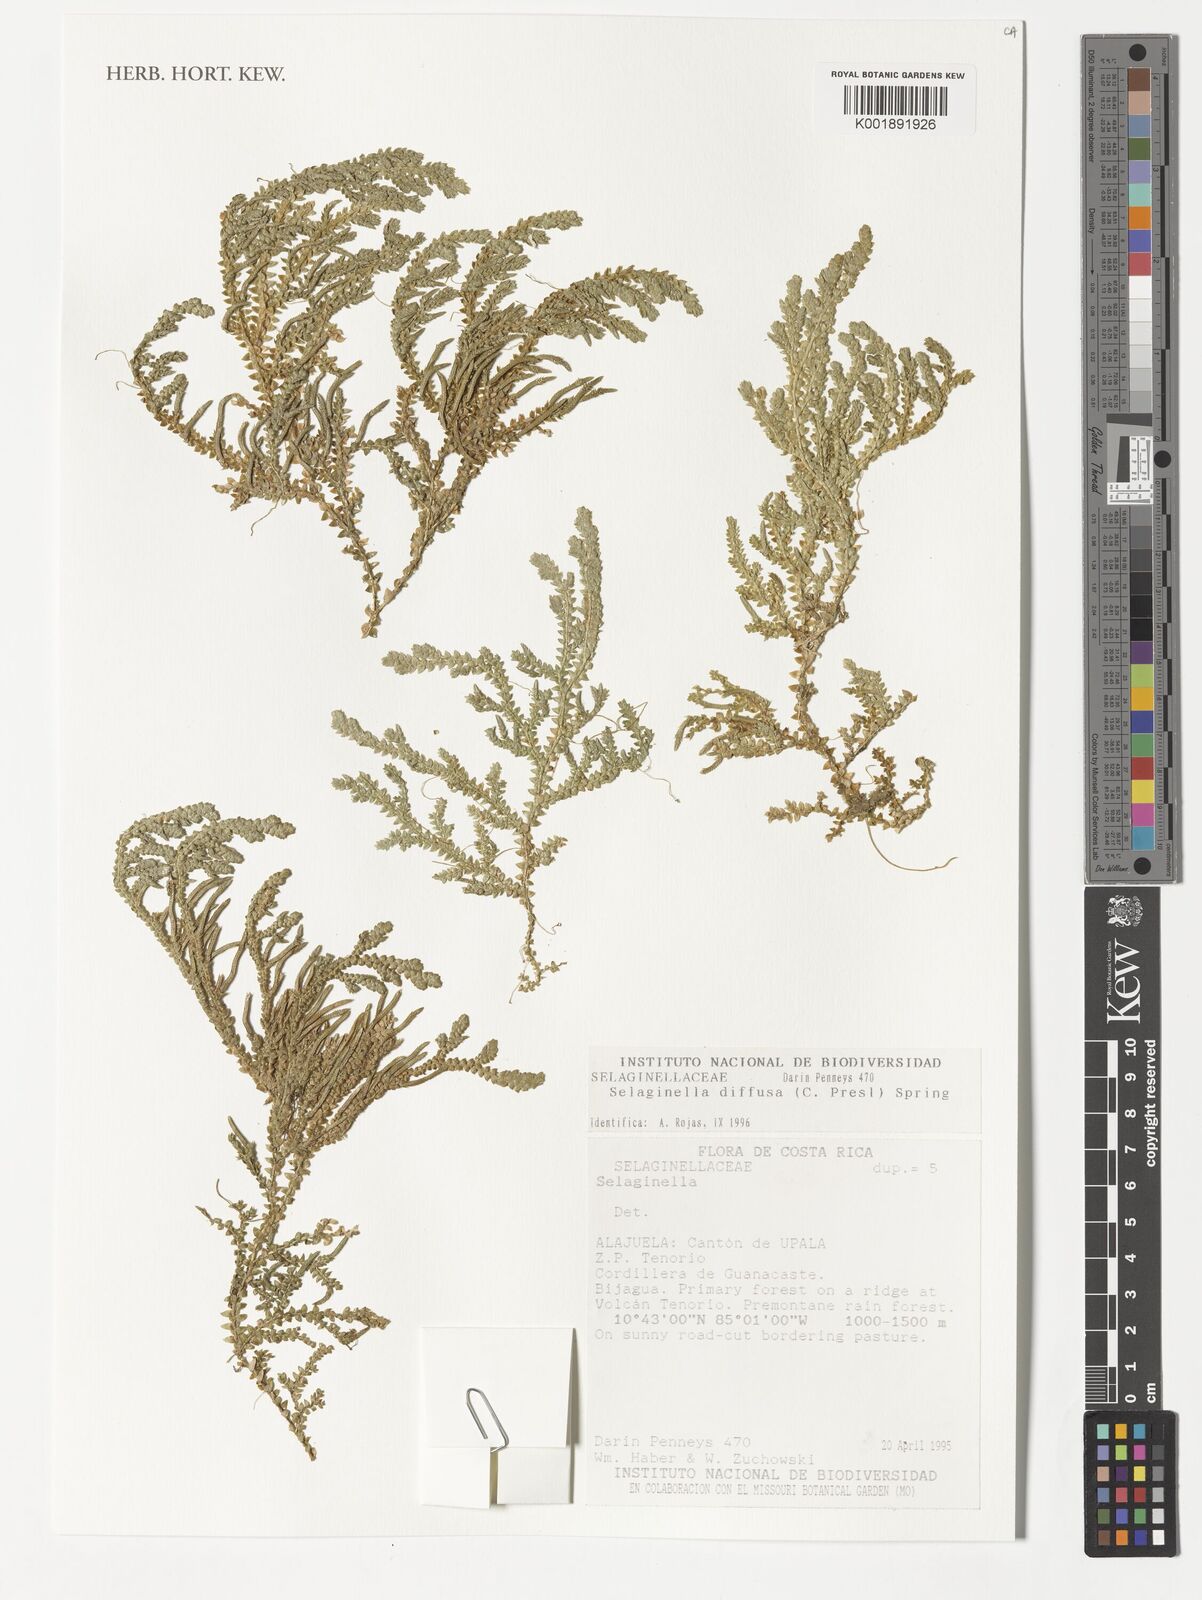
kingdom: Plantae
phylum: Tracheophyta
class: Lycopodiopsida
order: Selaginellales
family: Selaginellaceae
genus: Selaginella
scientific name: Selaginella diffusa
